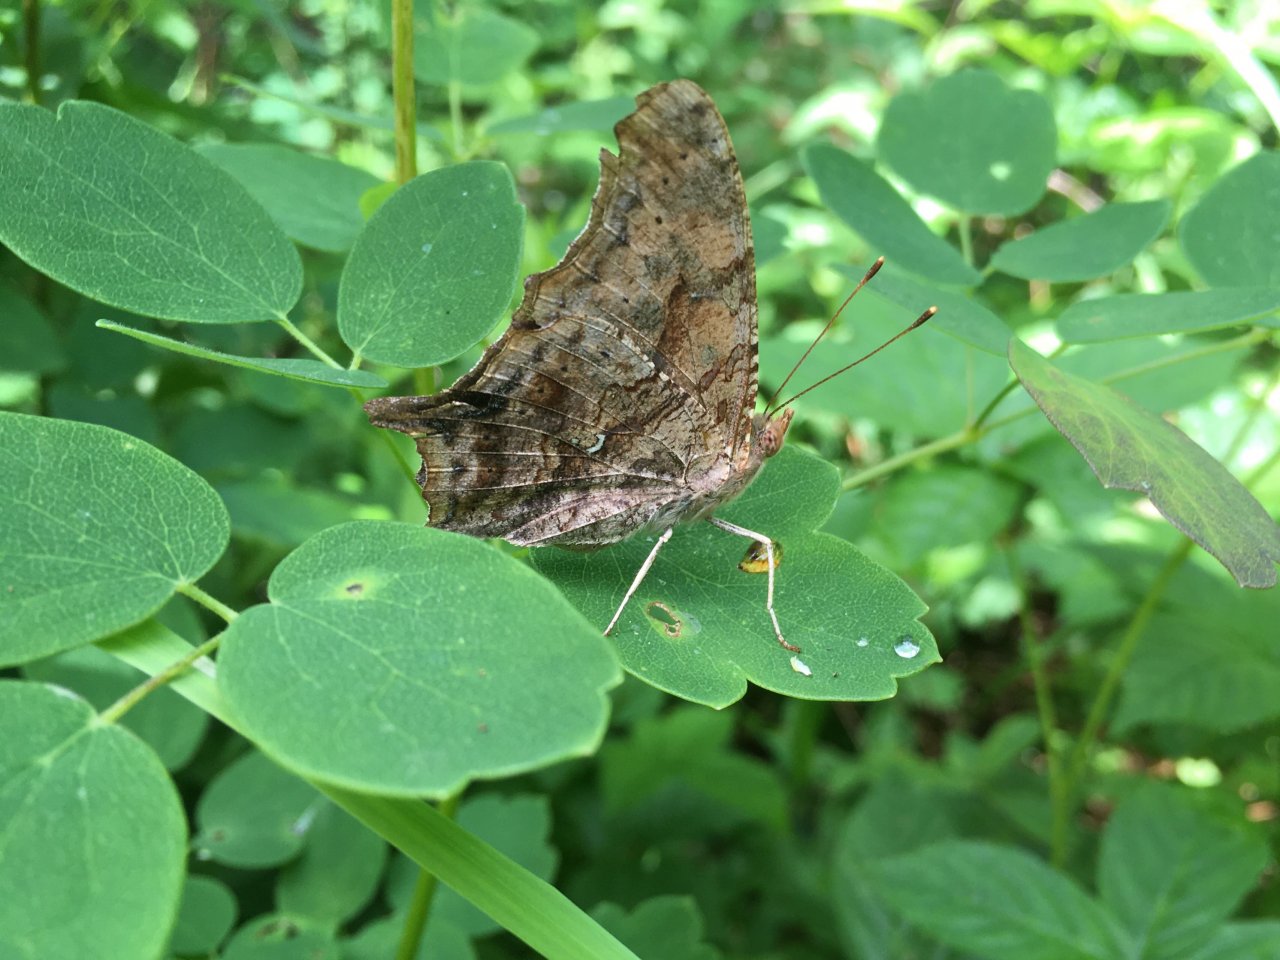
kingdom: Animalia
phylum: Arthropoda
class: Insecta
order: Lepidoptera
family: Nymphalidae
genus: Polygonia
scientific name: Polygonia interrogationis
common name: Question Mark
